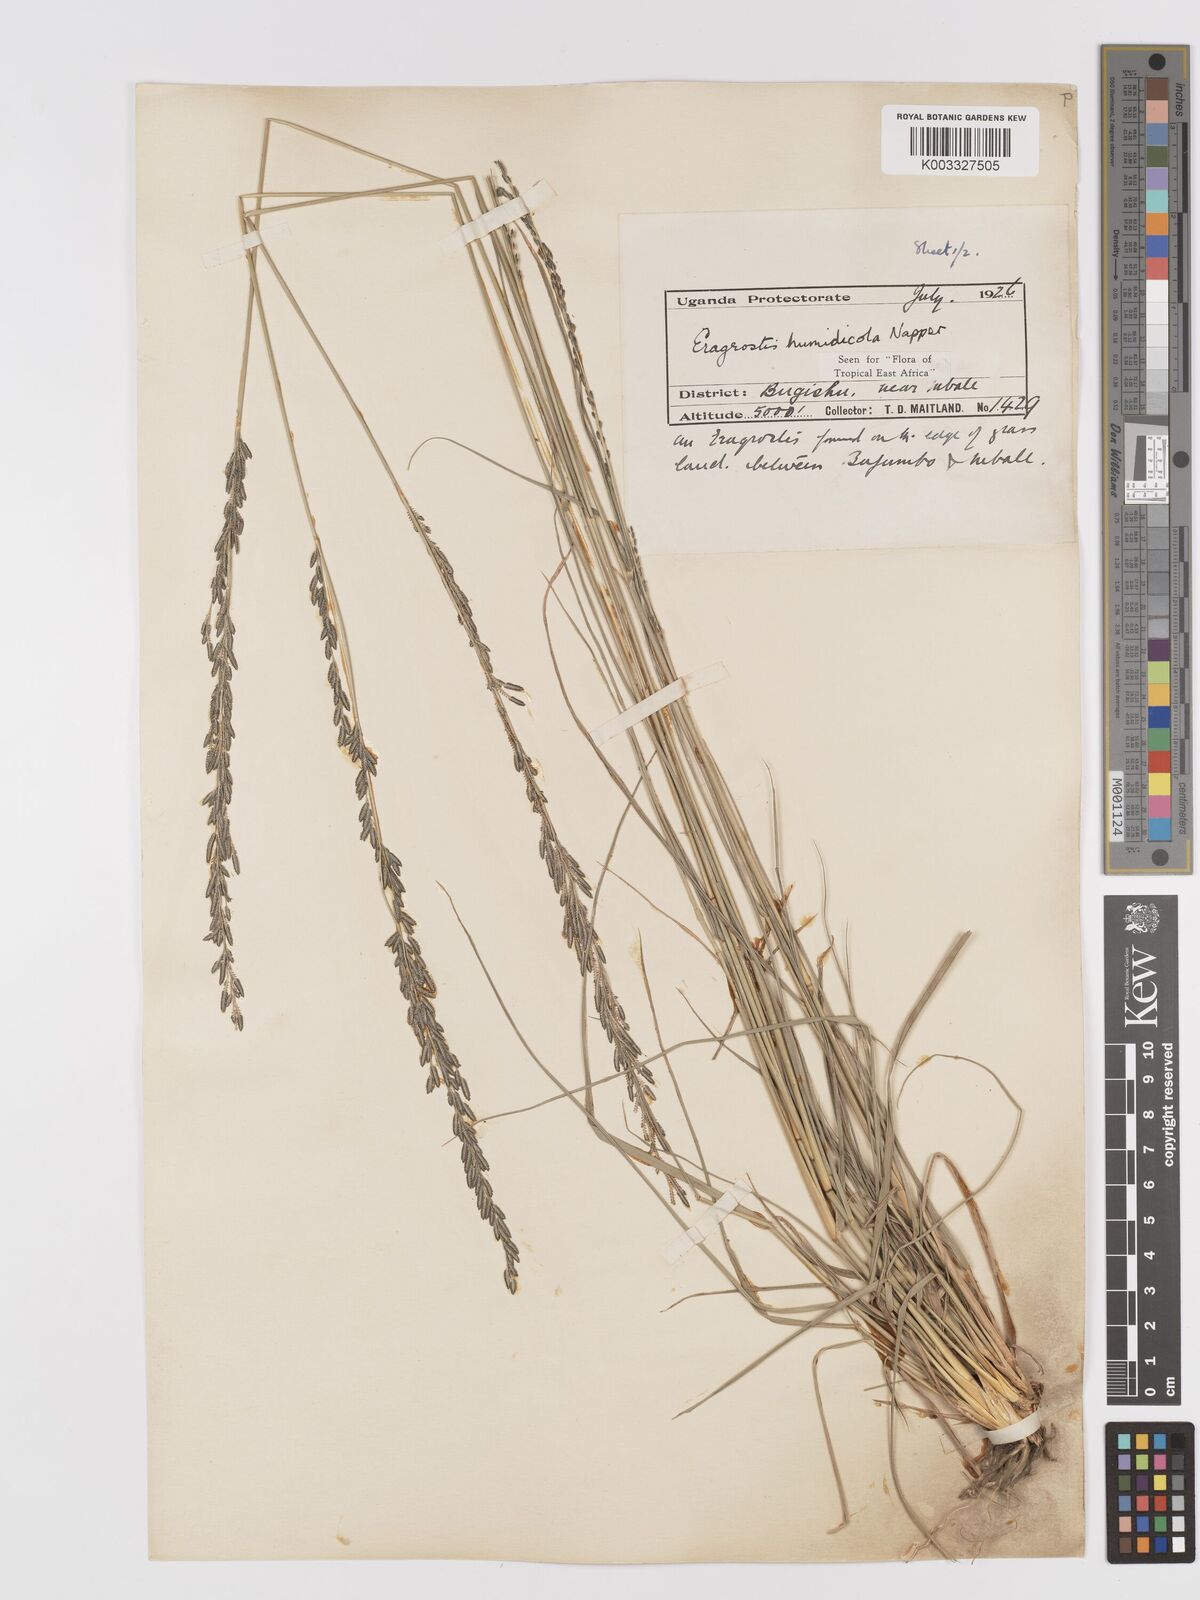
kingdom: Plantae
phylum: Tracheophyta
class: Liliopsida
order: Poales
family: Poaceae
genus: Eragrostis
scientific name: Eragrostis humidicola
